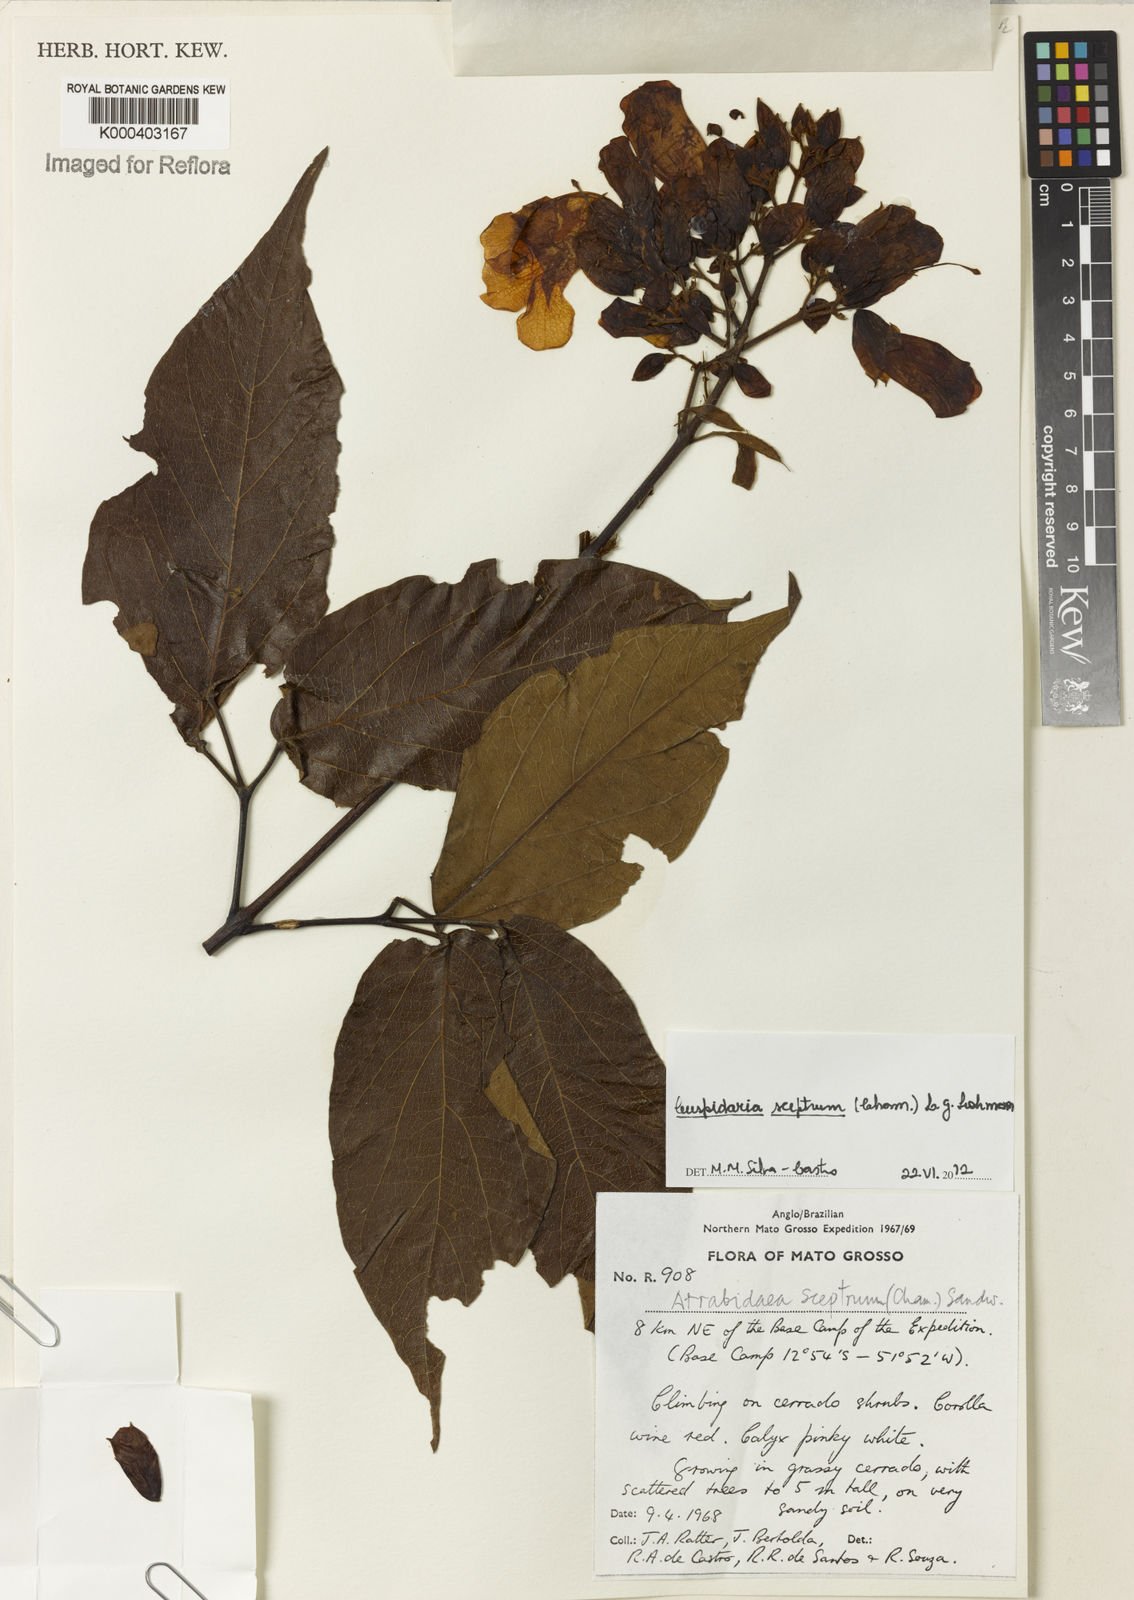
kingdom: Plantae
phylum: Tracheophyta
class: Magnoliopsida
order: Lamiales
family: Bignoniaceae
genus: Cuspidaria
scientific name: Cuspidaria sceptrum
